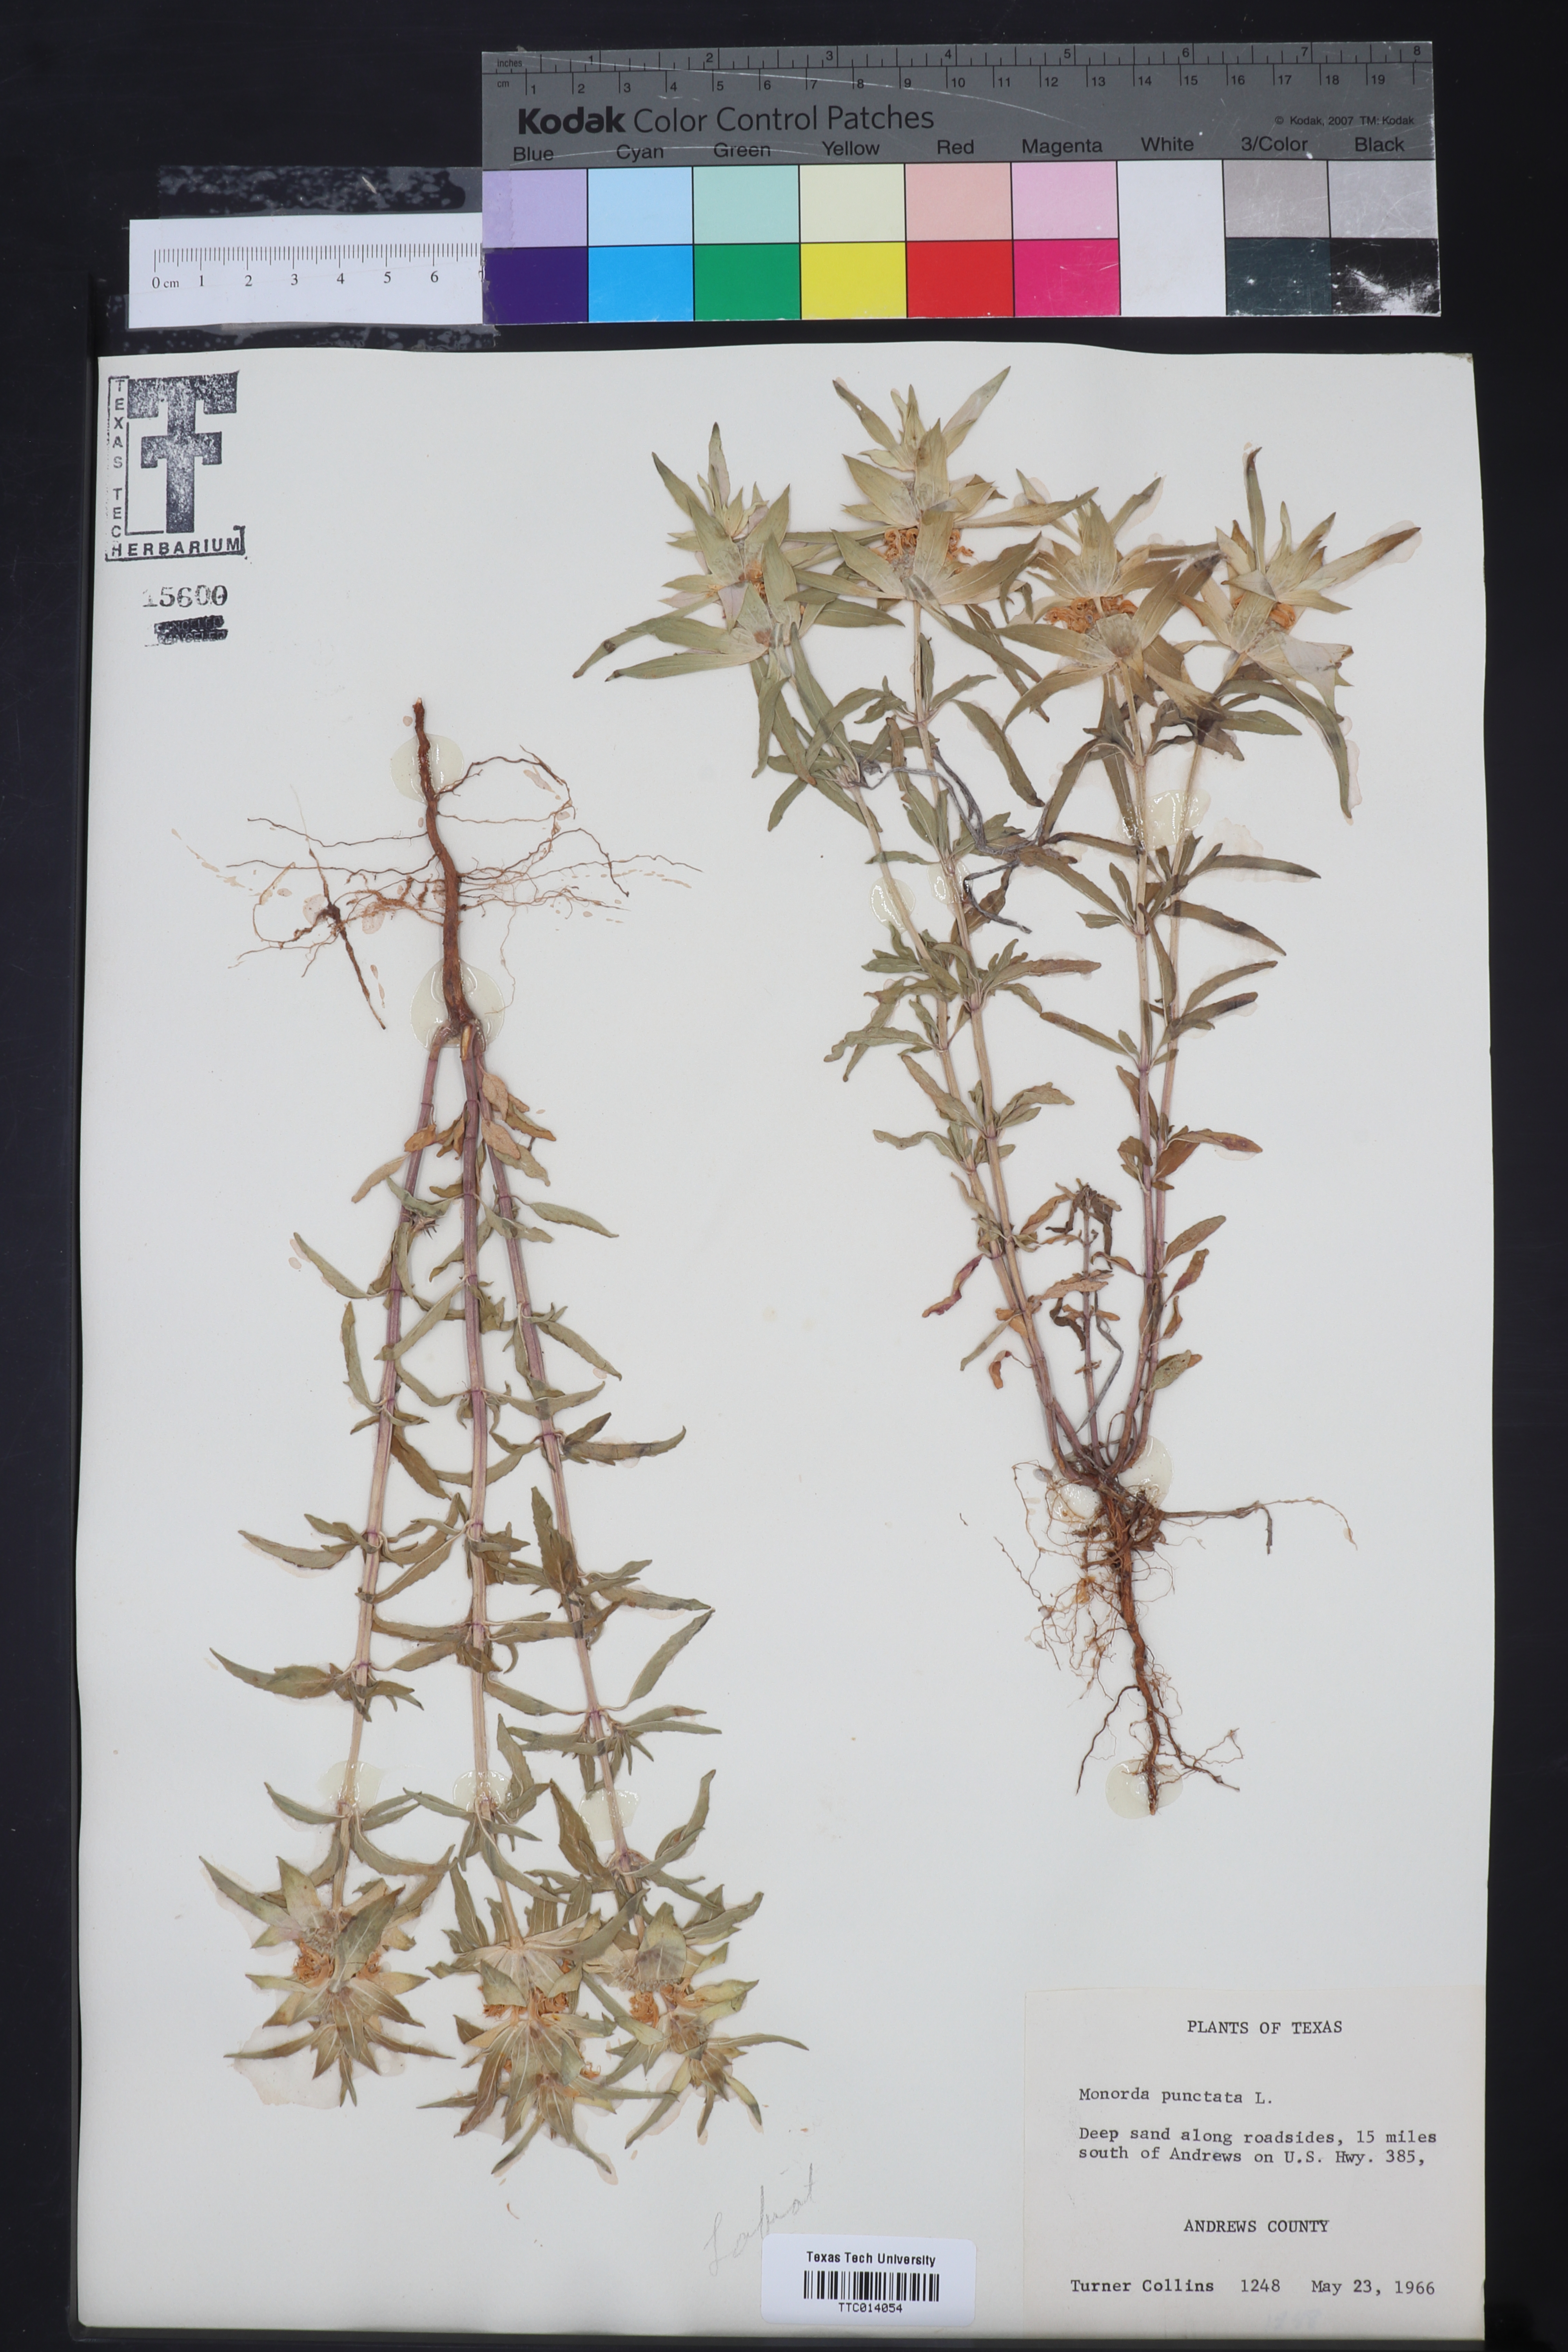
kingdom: Plantae
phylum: Tracheophyta
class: Magnoliopsida
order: Lamiales
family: Lamiaceae
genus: Monarda
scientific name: Monarda punctata
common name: Dotted monarda
